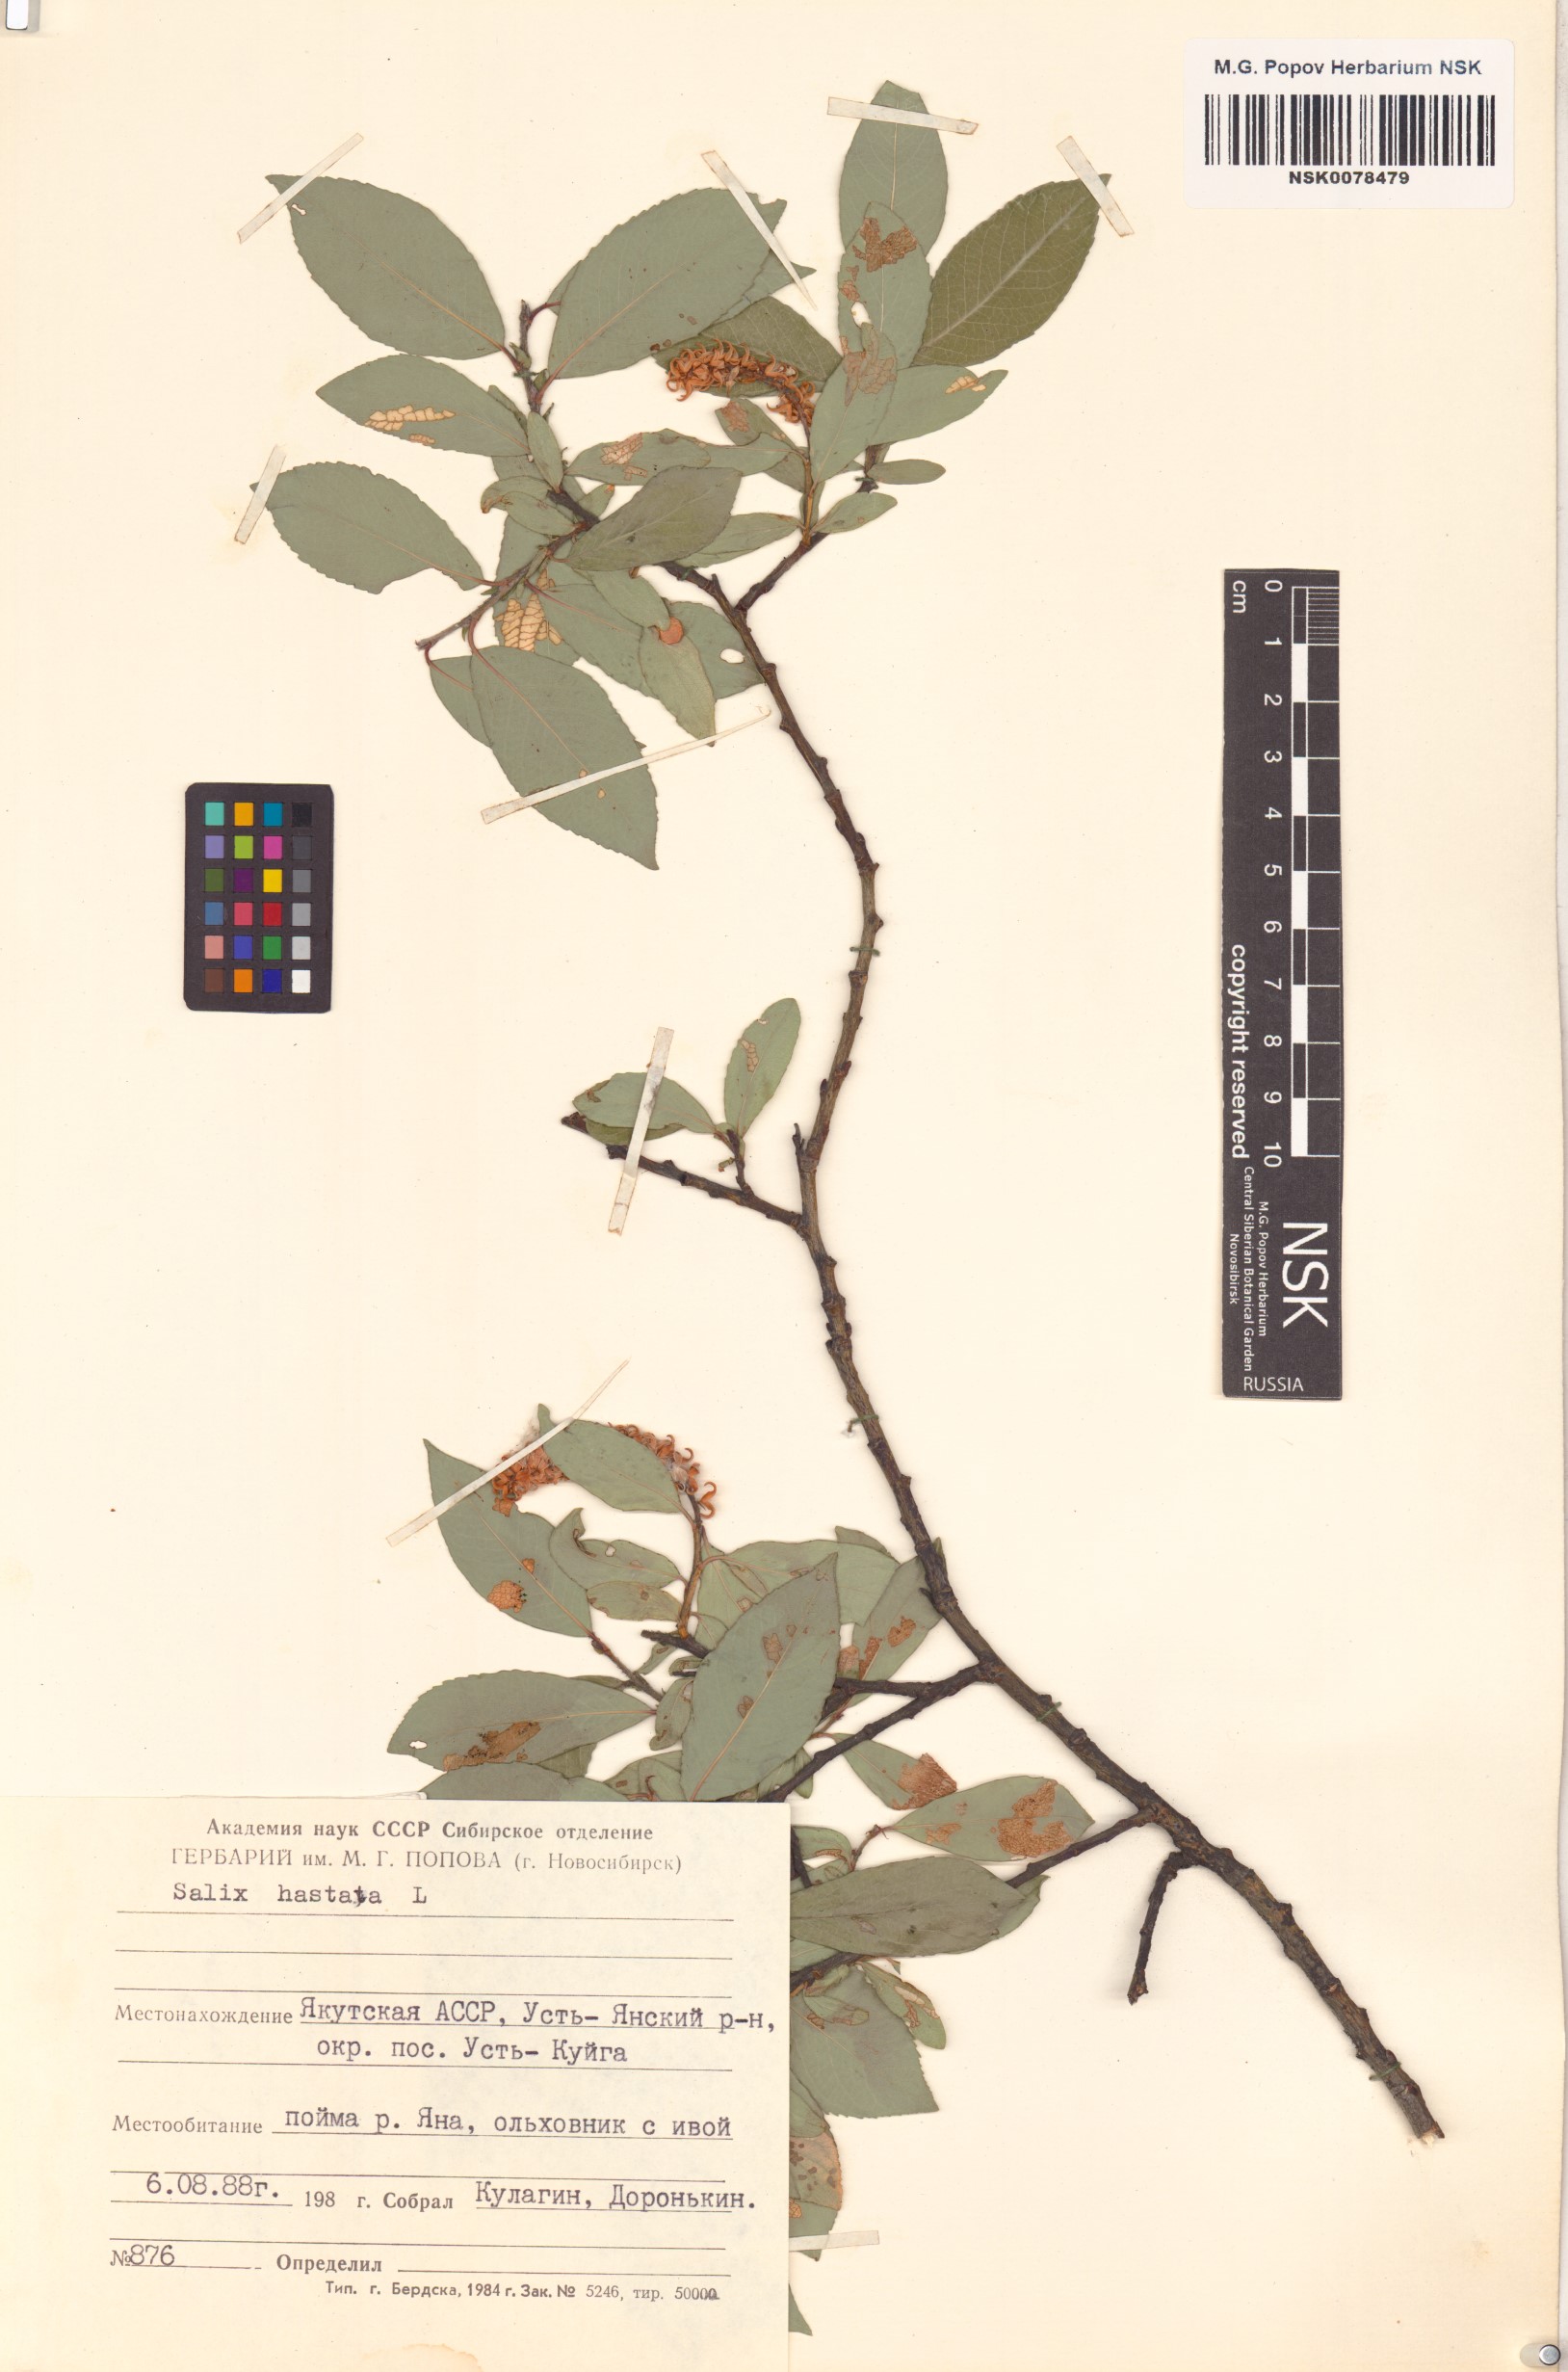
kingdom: Plantae
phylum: Tracheophyta
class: Magnoliopsida
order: Malpighiales
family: Salicaceae
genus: Salix
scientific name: Salix hastata
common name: Halberd willow
